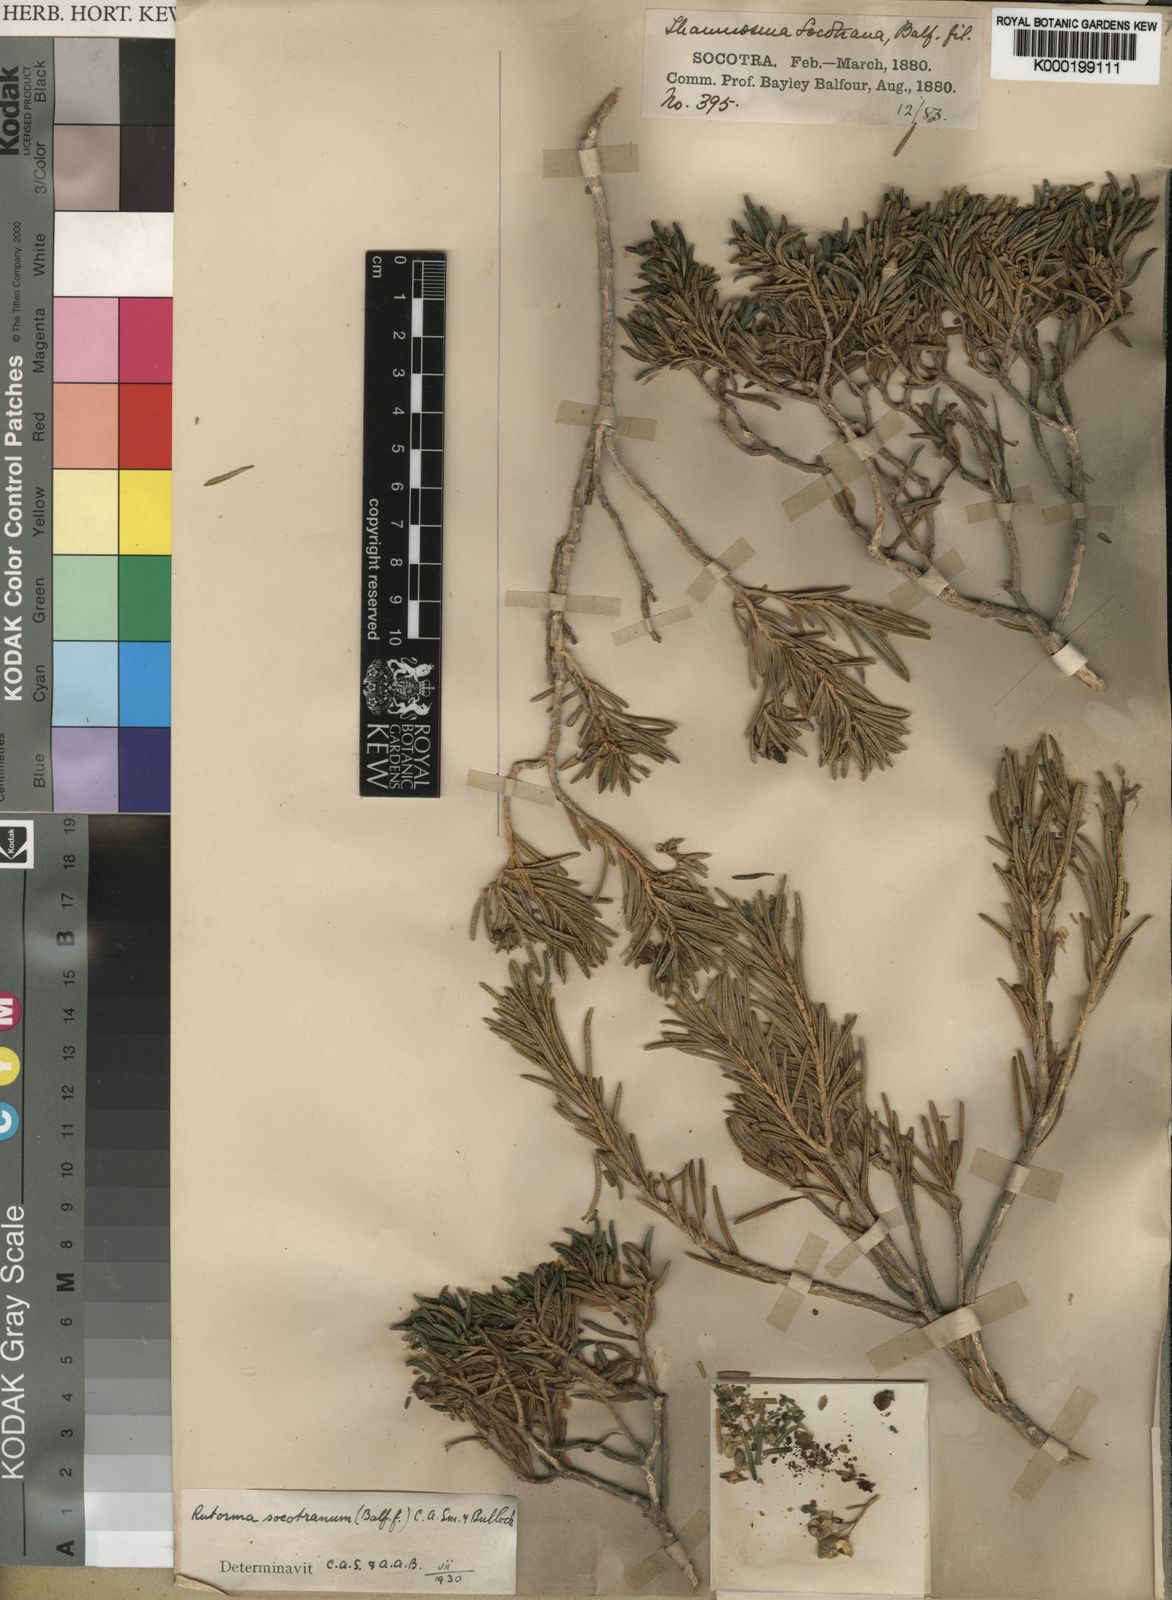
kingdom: Plantae
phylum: Tracheophyta
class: Magnoliopsida
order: Sapindales
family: Rutaceae
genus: Thamnosma
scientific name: Thamnosma socotrana
